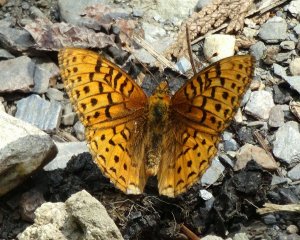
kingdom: Animalia
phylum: Arthropoda
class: Insecta
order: Lepidoptera
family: Nymphalidae
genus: Speyeria
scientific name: Speyeria aphrodite
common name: Aphrodite Fritillary
